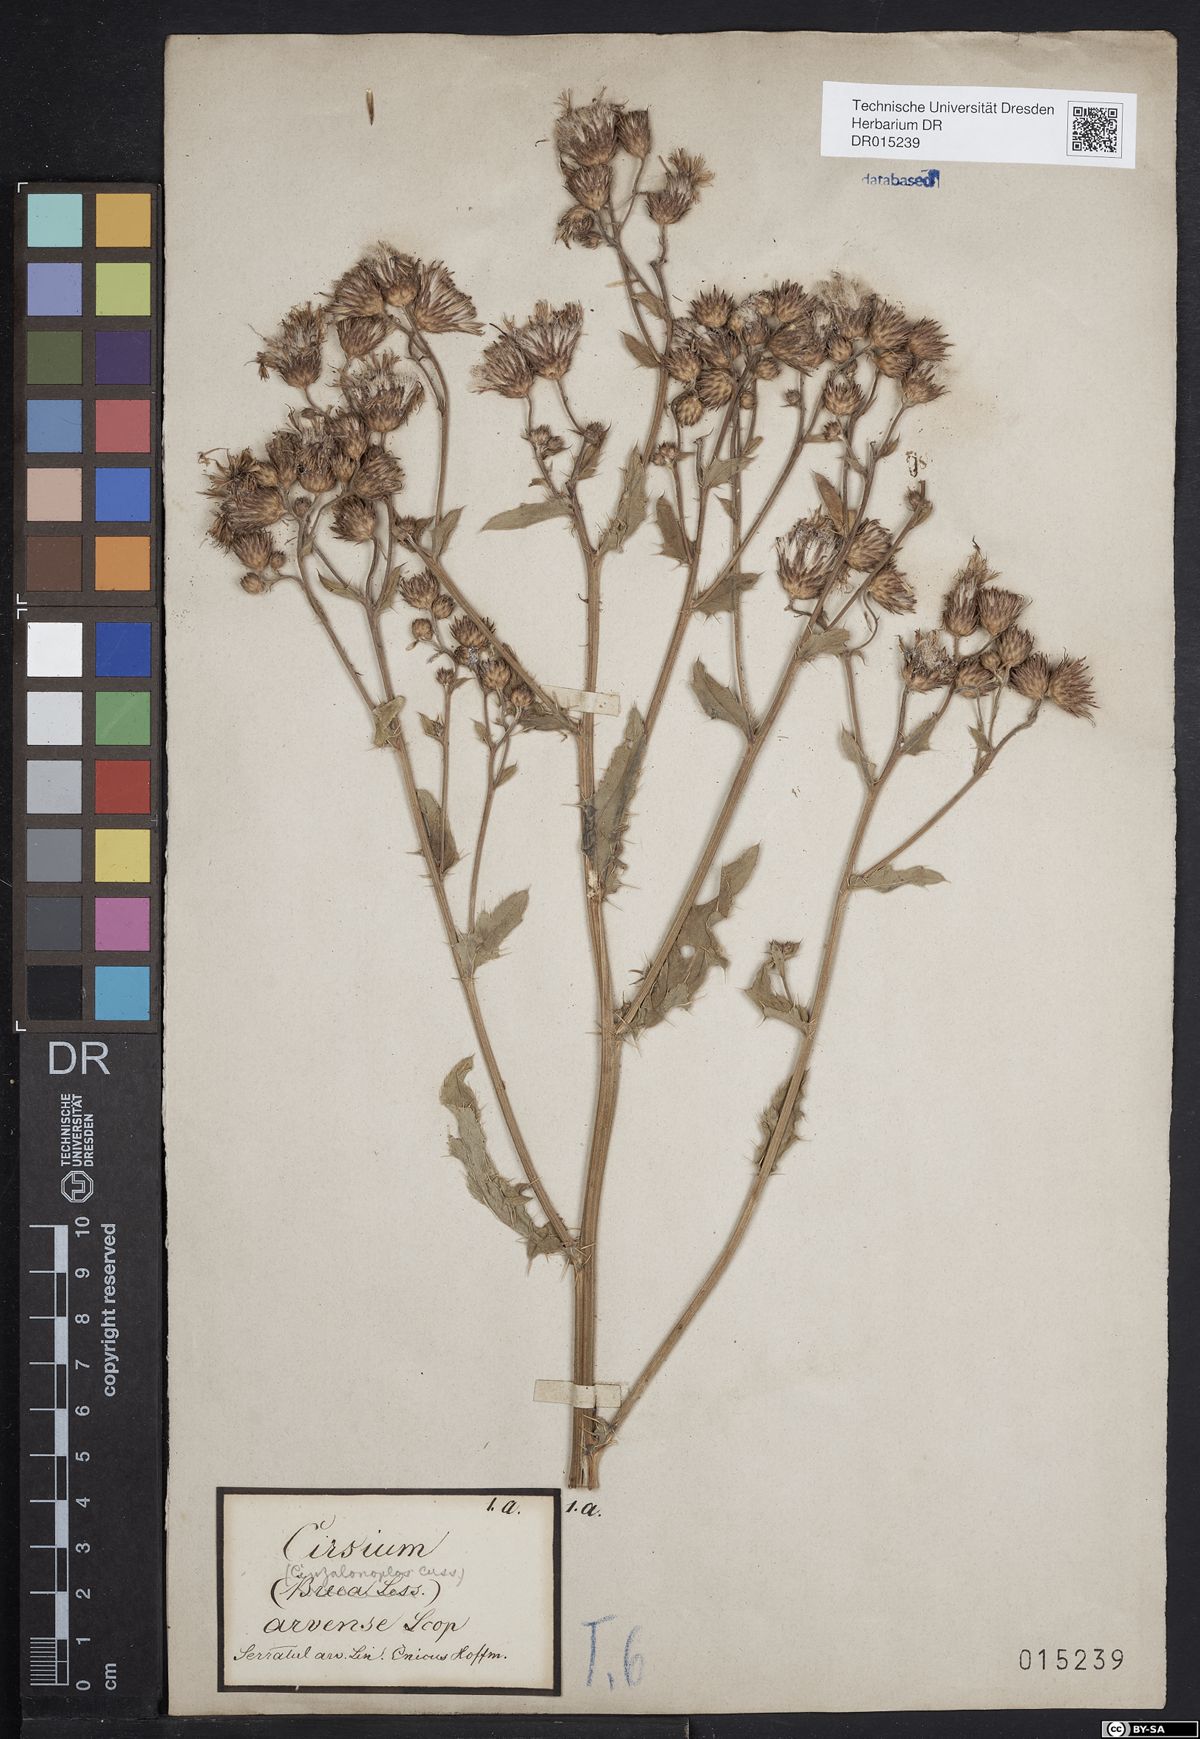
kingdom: Plantae
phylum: Tracheophyta
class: Magnoliopsida
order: Asterales
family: Asteraceae
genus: Cirsium
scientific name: Cirsium arvense
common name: Creeping thistle
